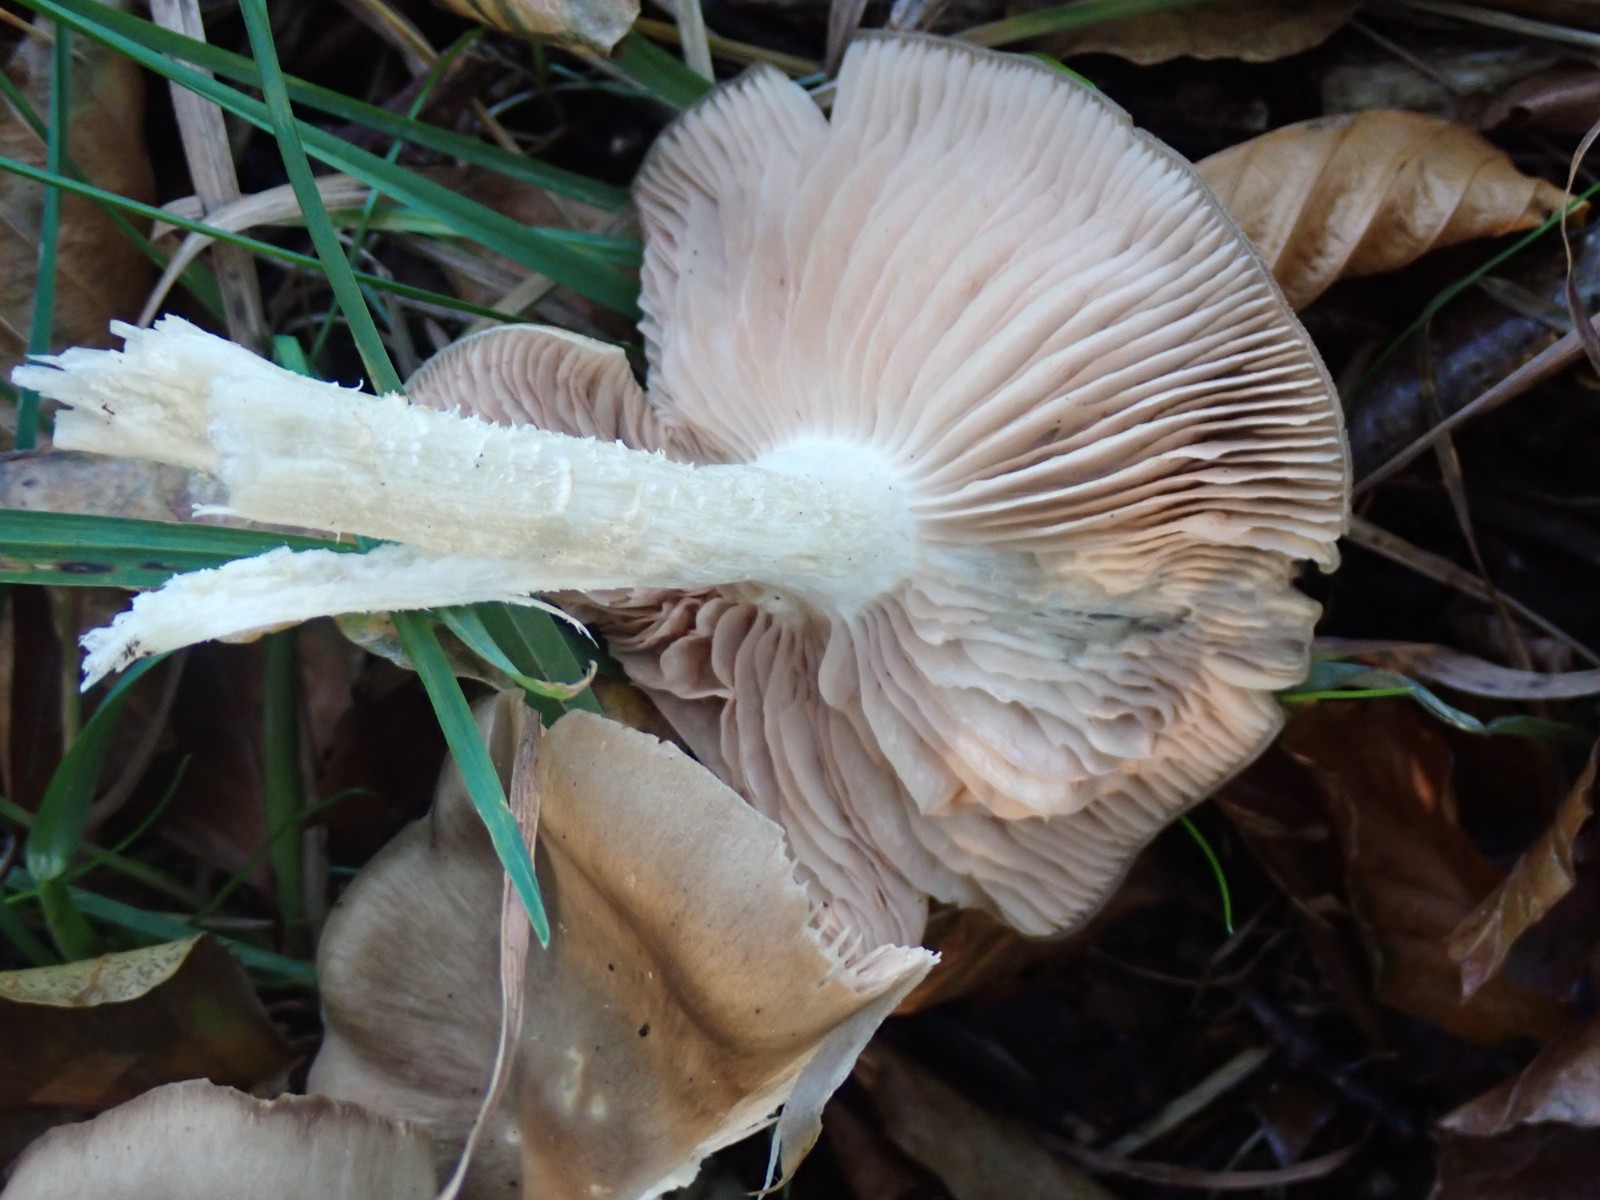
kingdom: Fungi
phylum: Basidiomycota
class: Agaricomycetes
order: Agaricales
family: Entolomataceae
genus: Entoloma
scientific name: Entoloma
